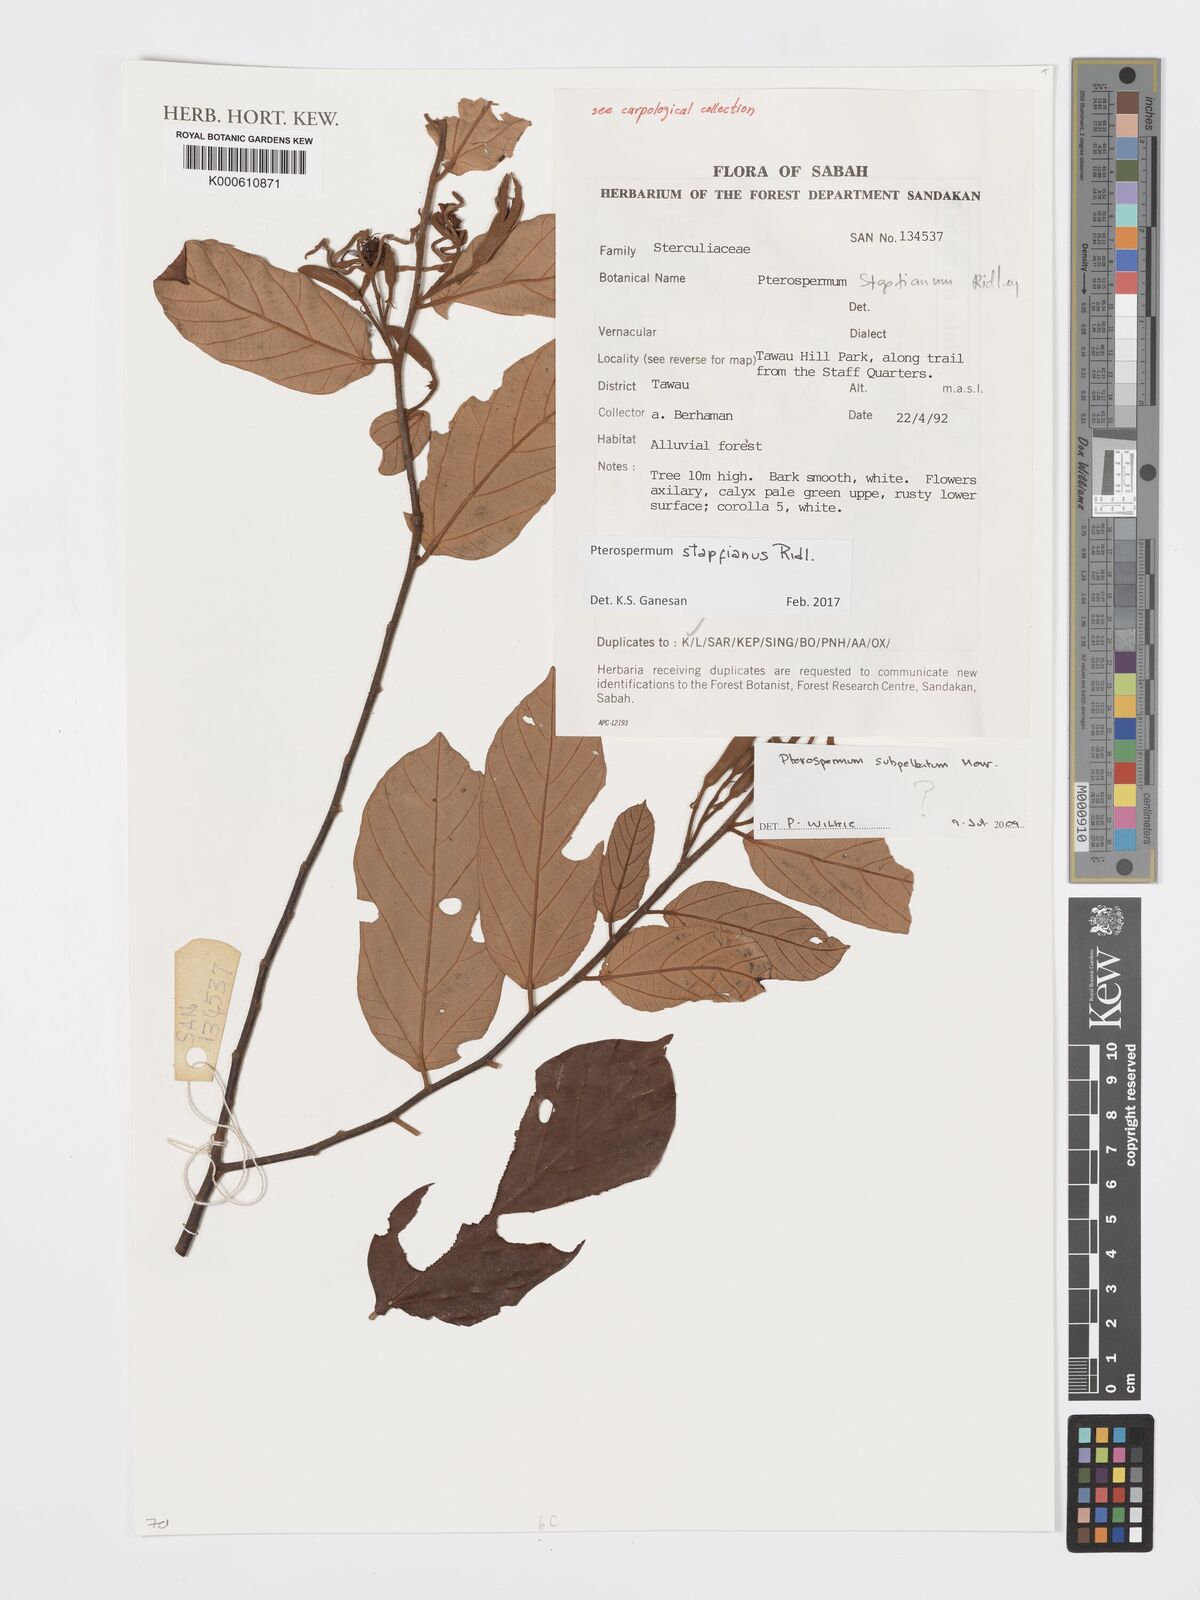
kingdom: Plantae
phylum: Tracheophyta
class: Magnoliopsida
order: Malvales
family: Malvaceae
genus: Pterospermum
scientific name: Pterospermum subpeltatum
